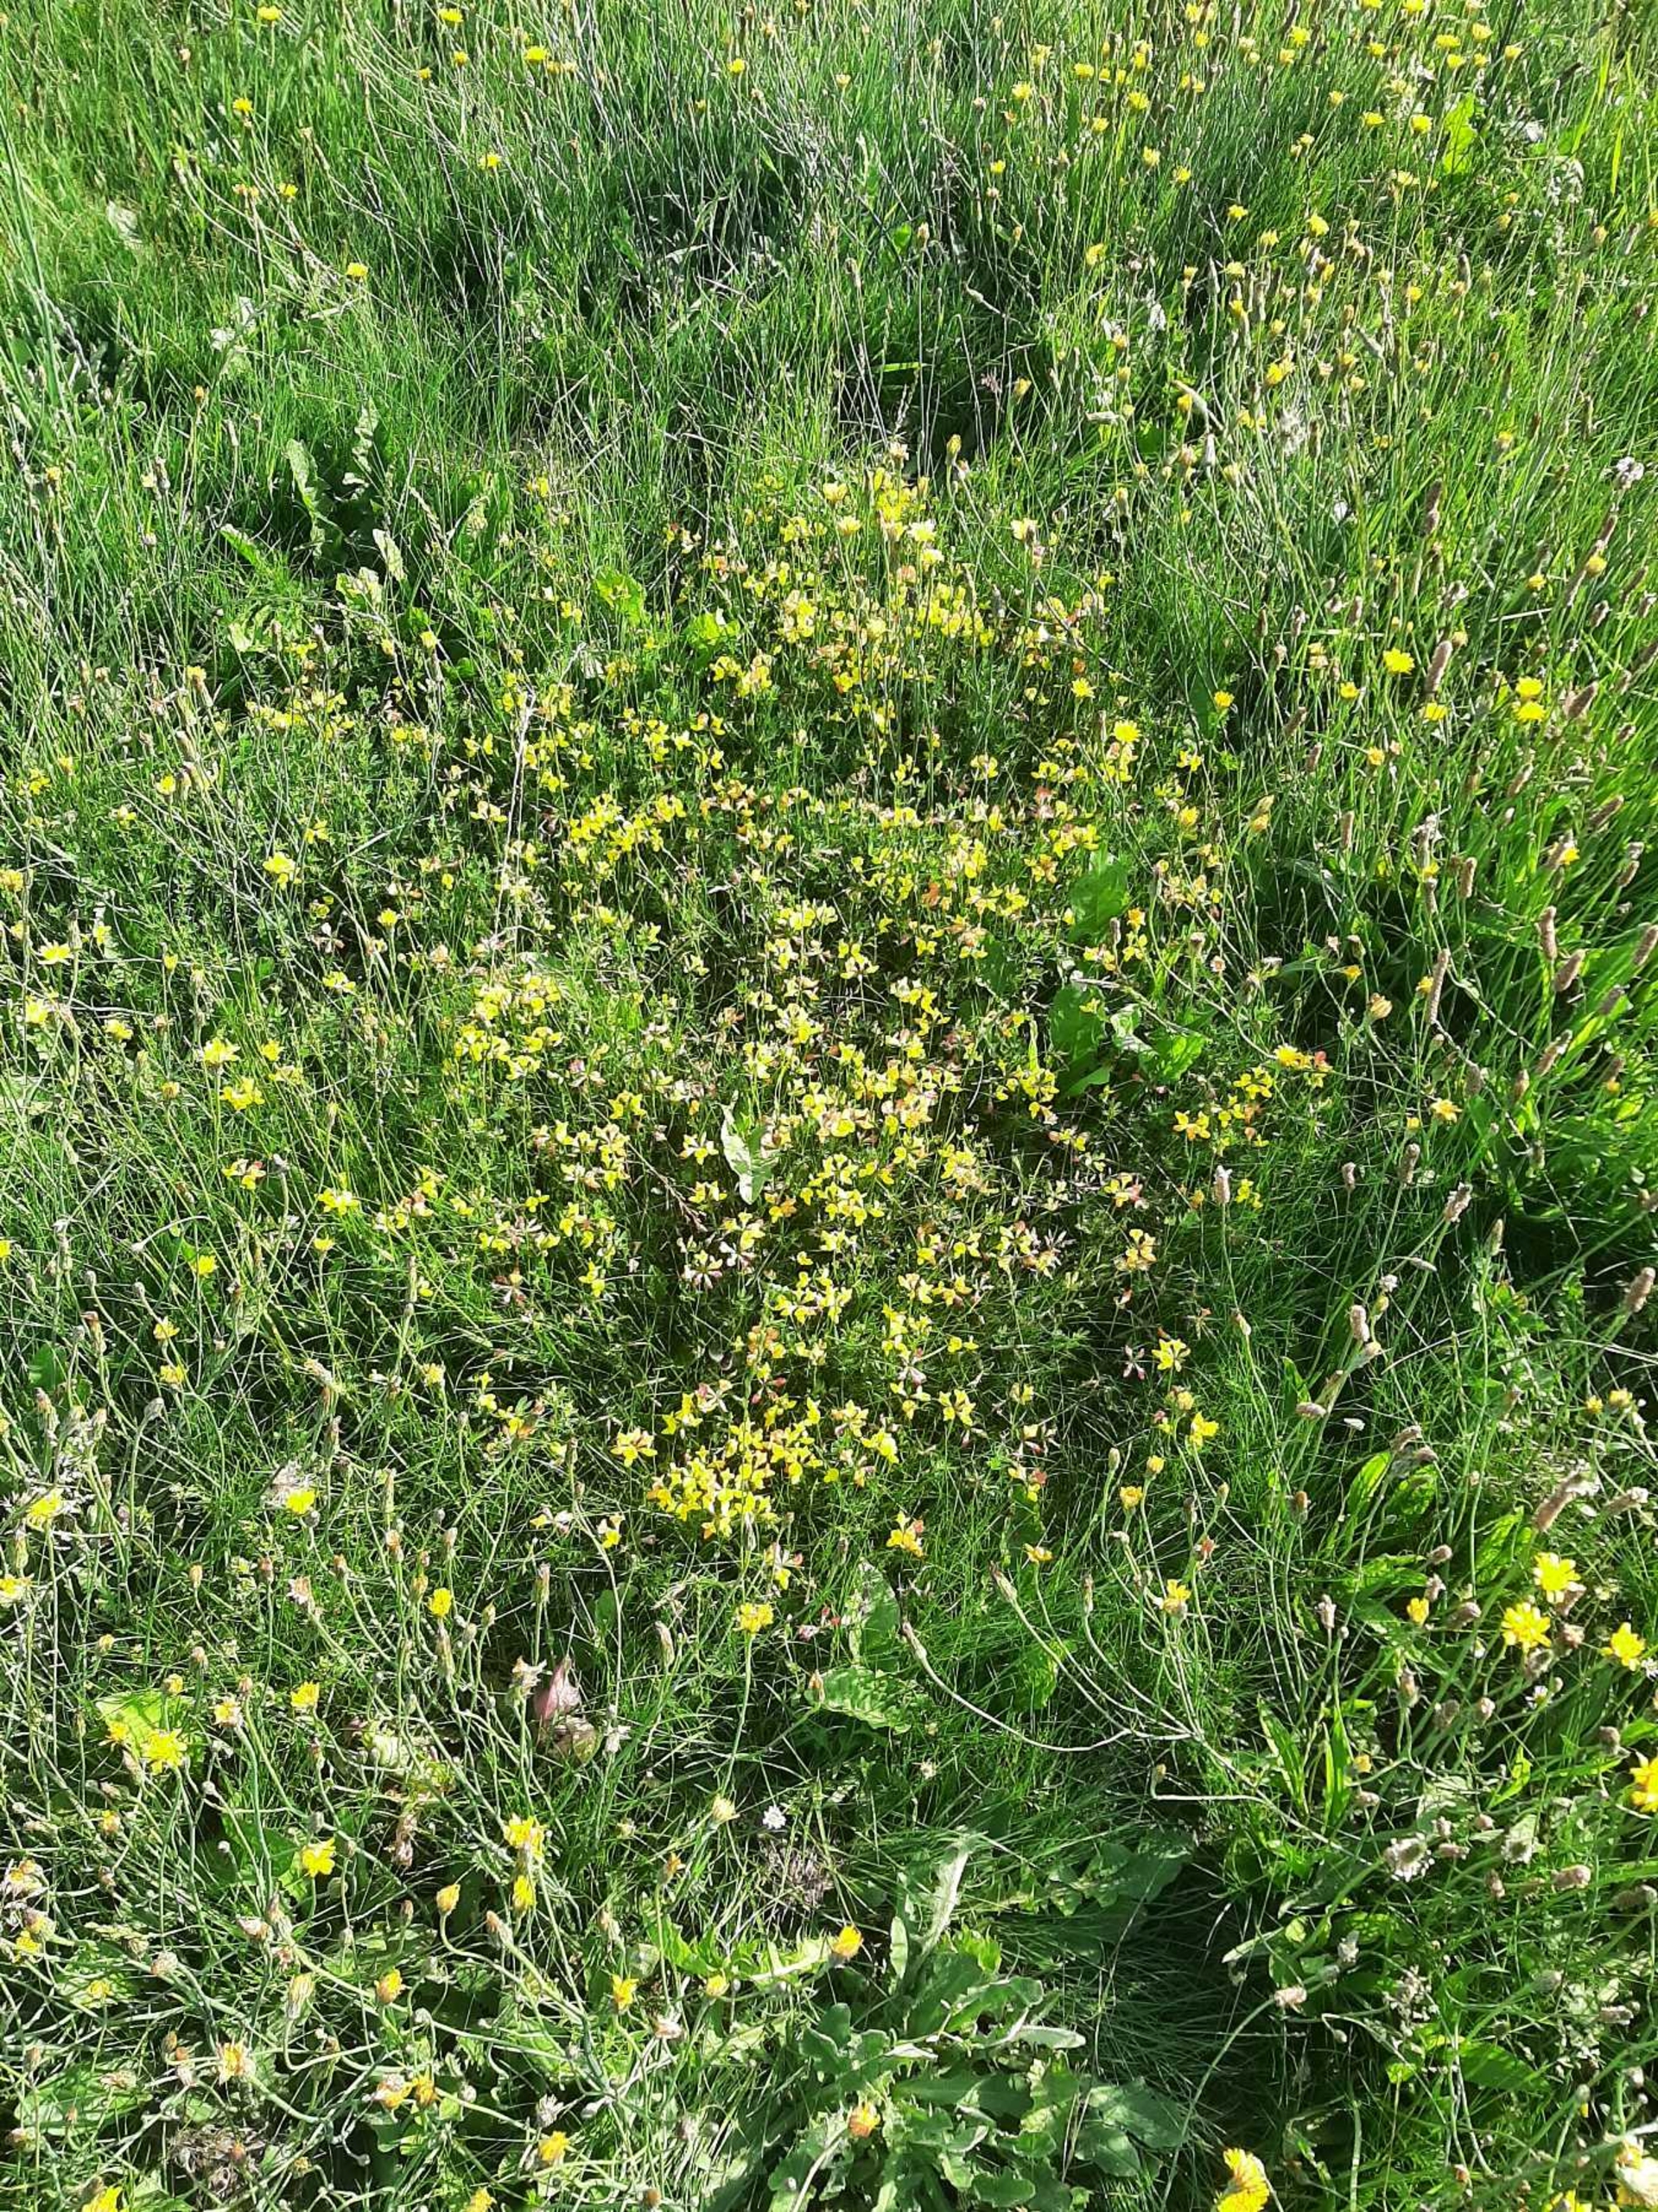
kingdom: Plantae
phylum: Tracheophyta
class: Magnoliopsida
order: Fabales
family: Fabaceae
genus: Lotus
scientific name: Lotus corniculatus
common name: Almindelig kællingetand
